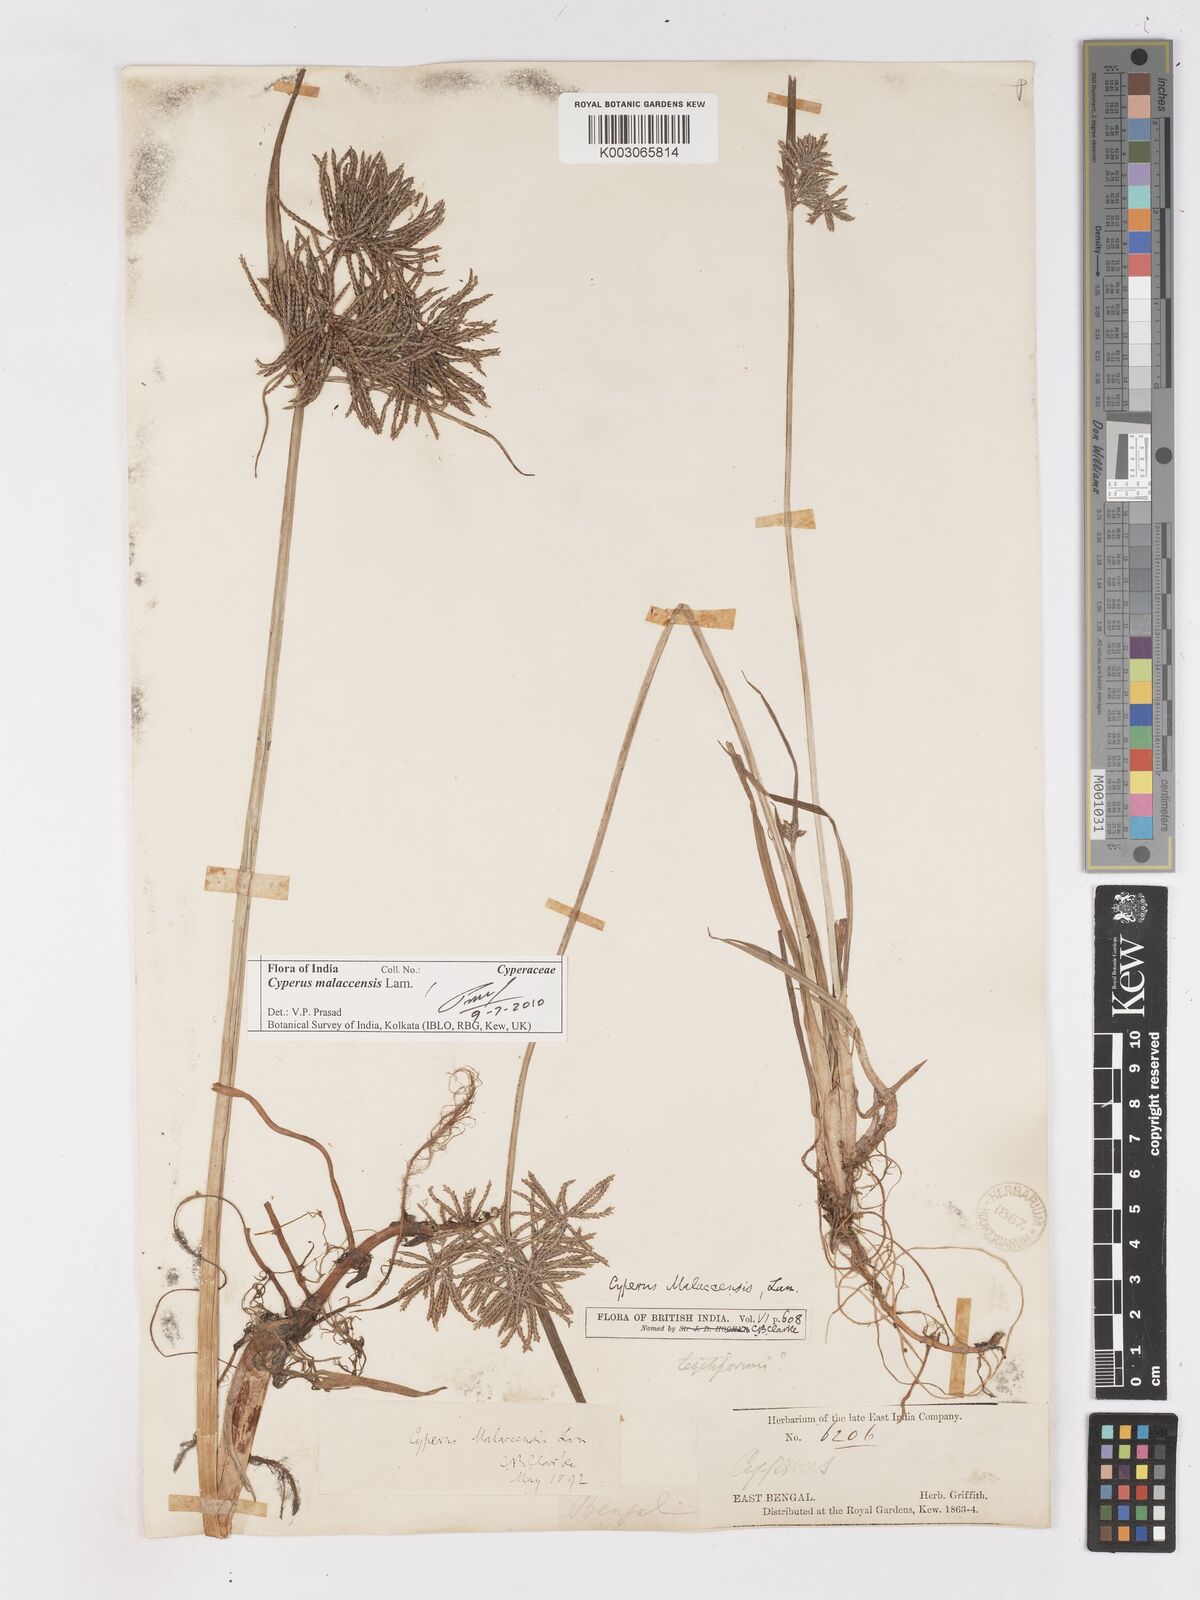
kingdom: Plantae
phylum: Tracheophyta
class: Liliopsida
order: Poales
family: Cyperaceae
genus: Cyperus
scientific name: Cyperus malaccensis
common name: Shichito matgrass
